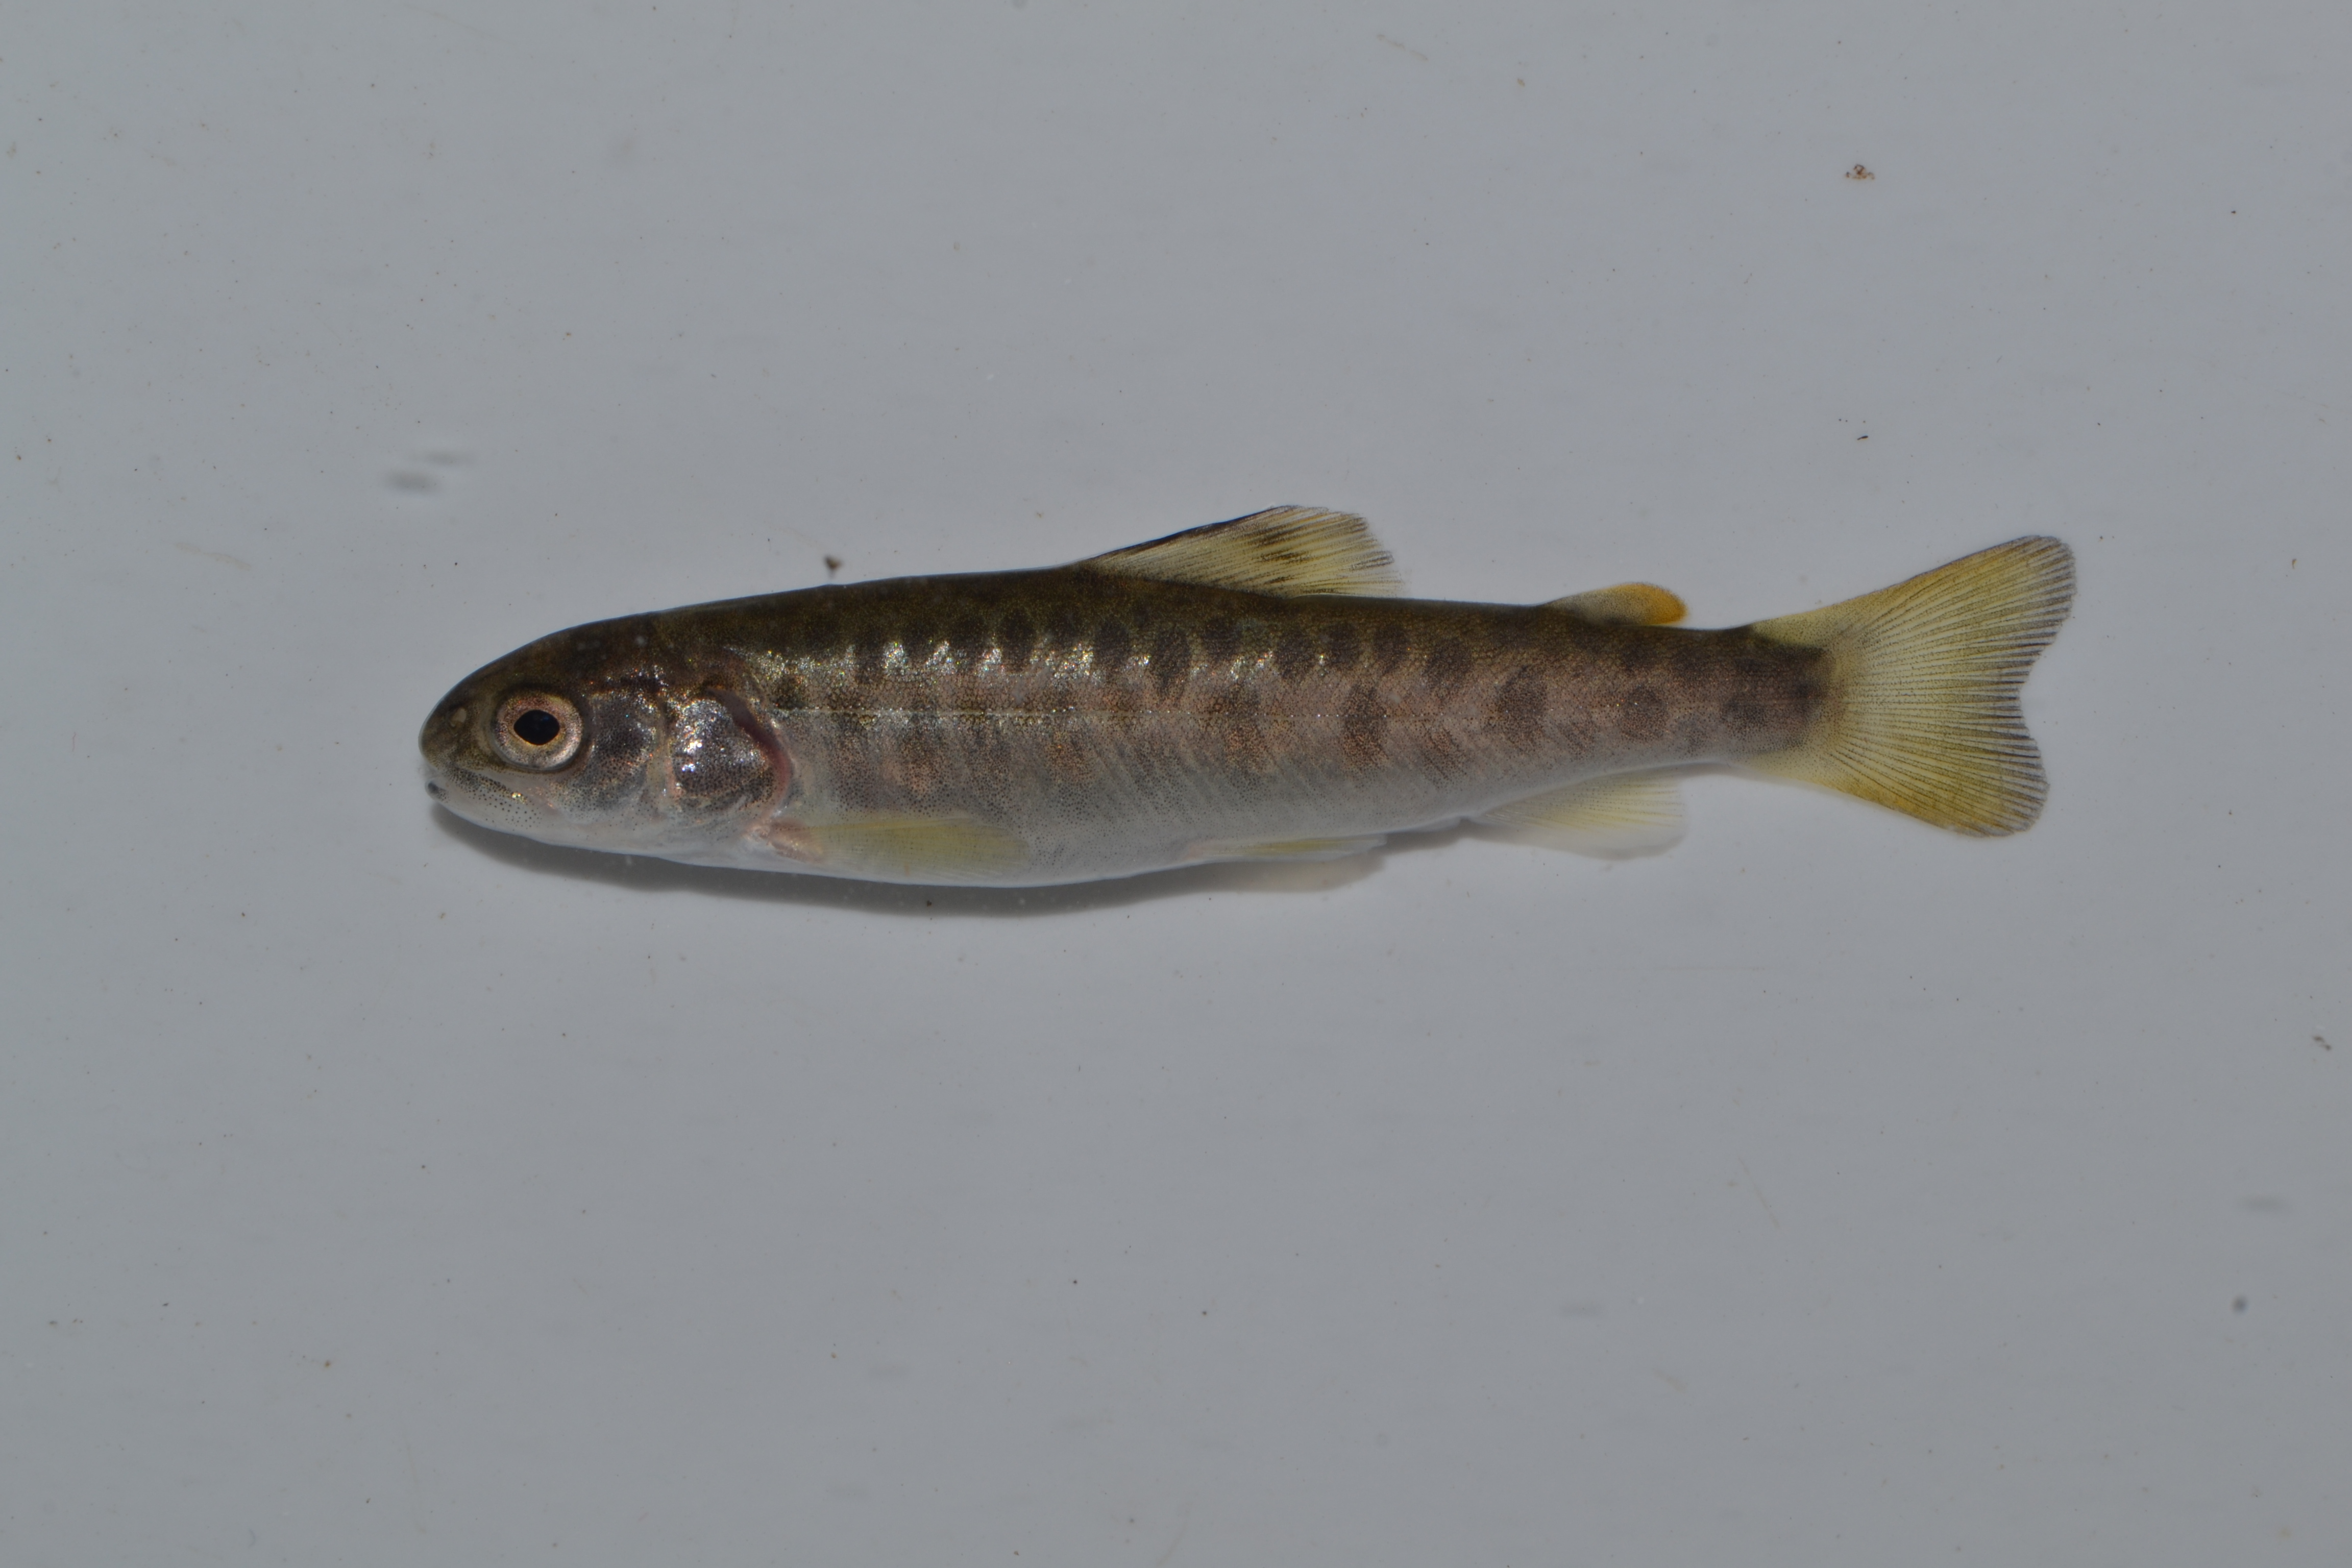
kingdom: Animalia
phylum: Chordata
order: Salmoniformes
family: Salmonidae
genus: Salmo
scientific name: Salmo trutta
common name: Brown trout
